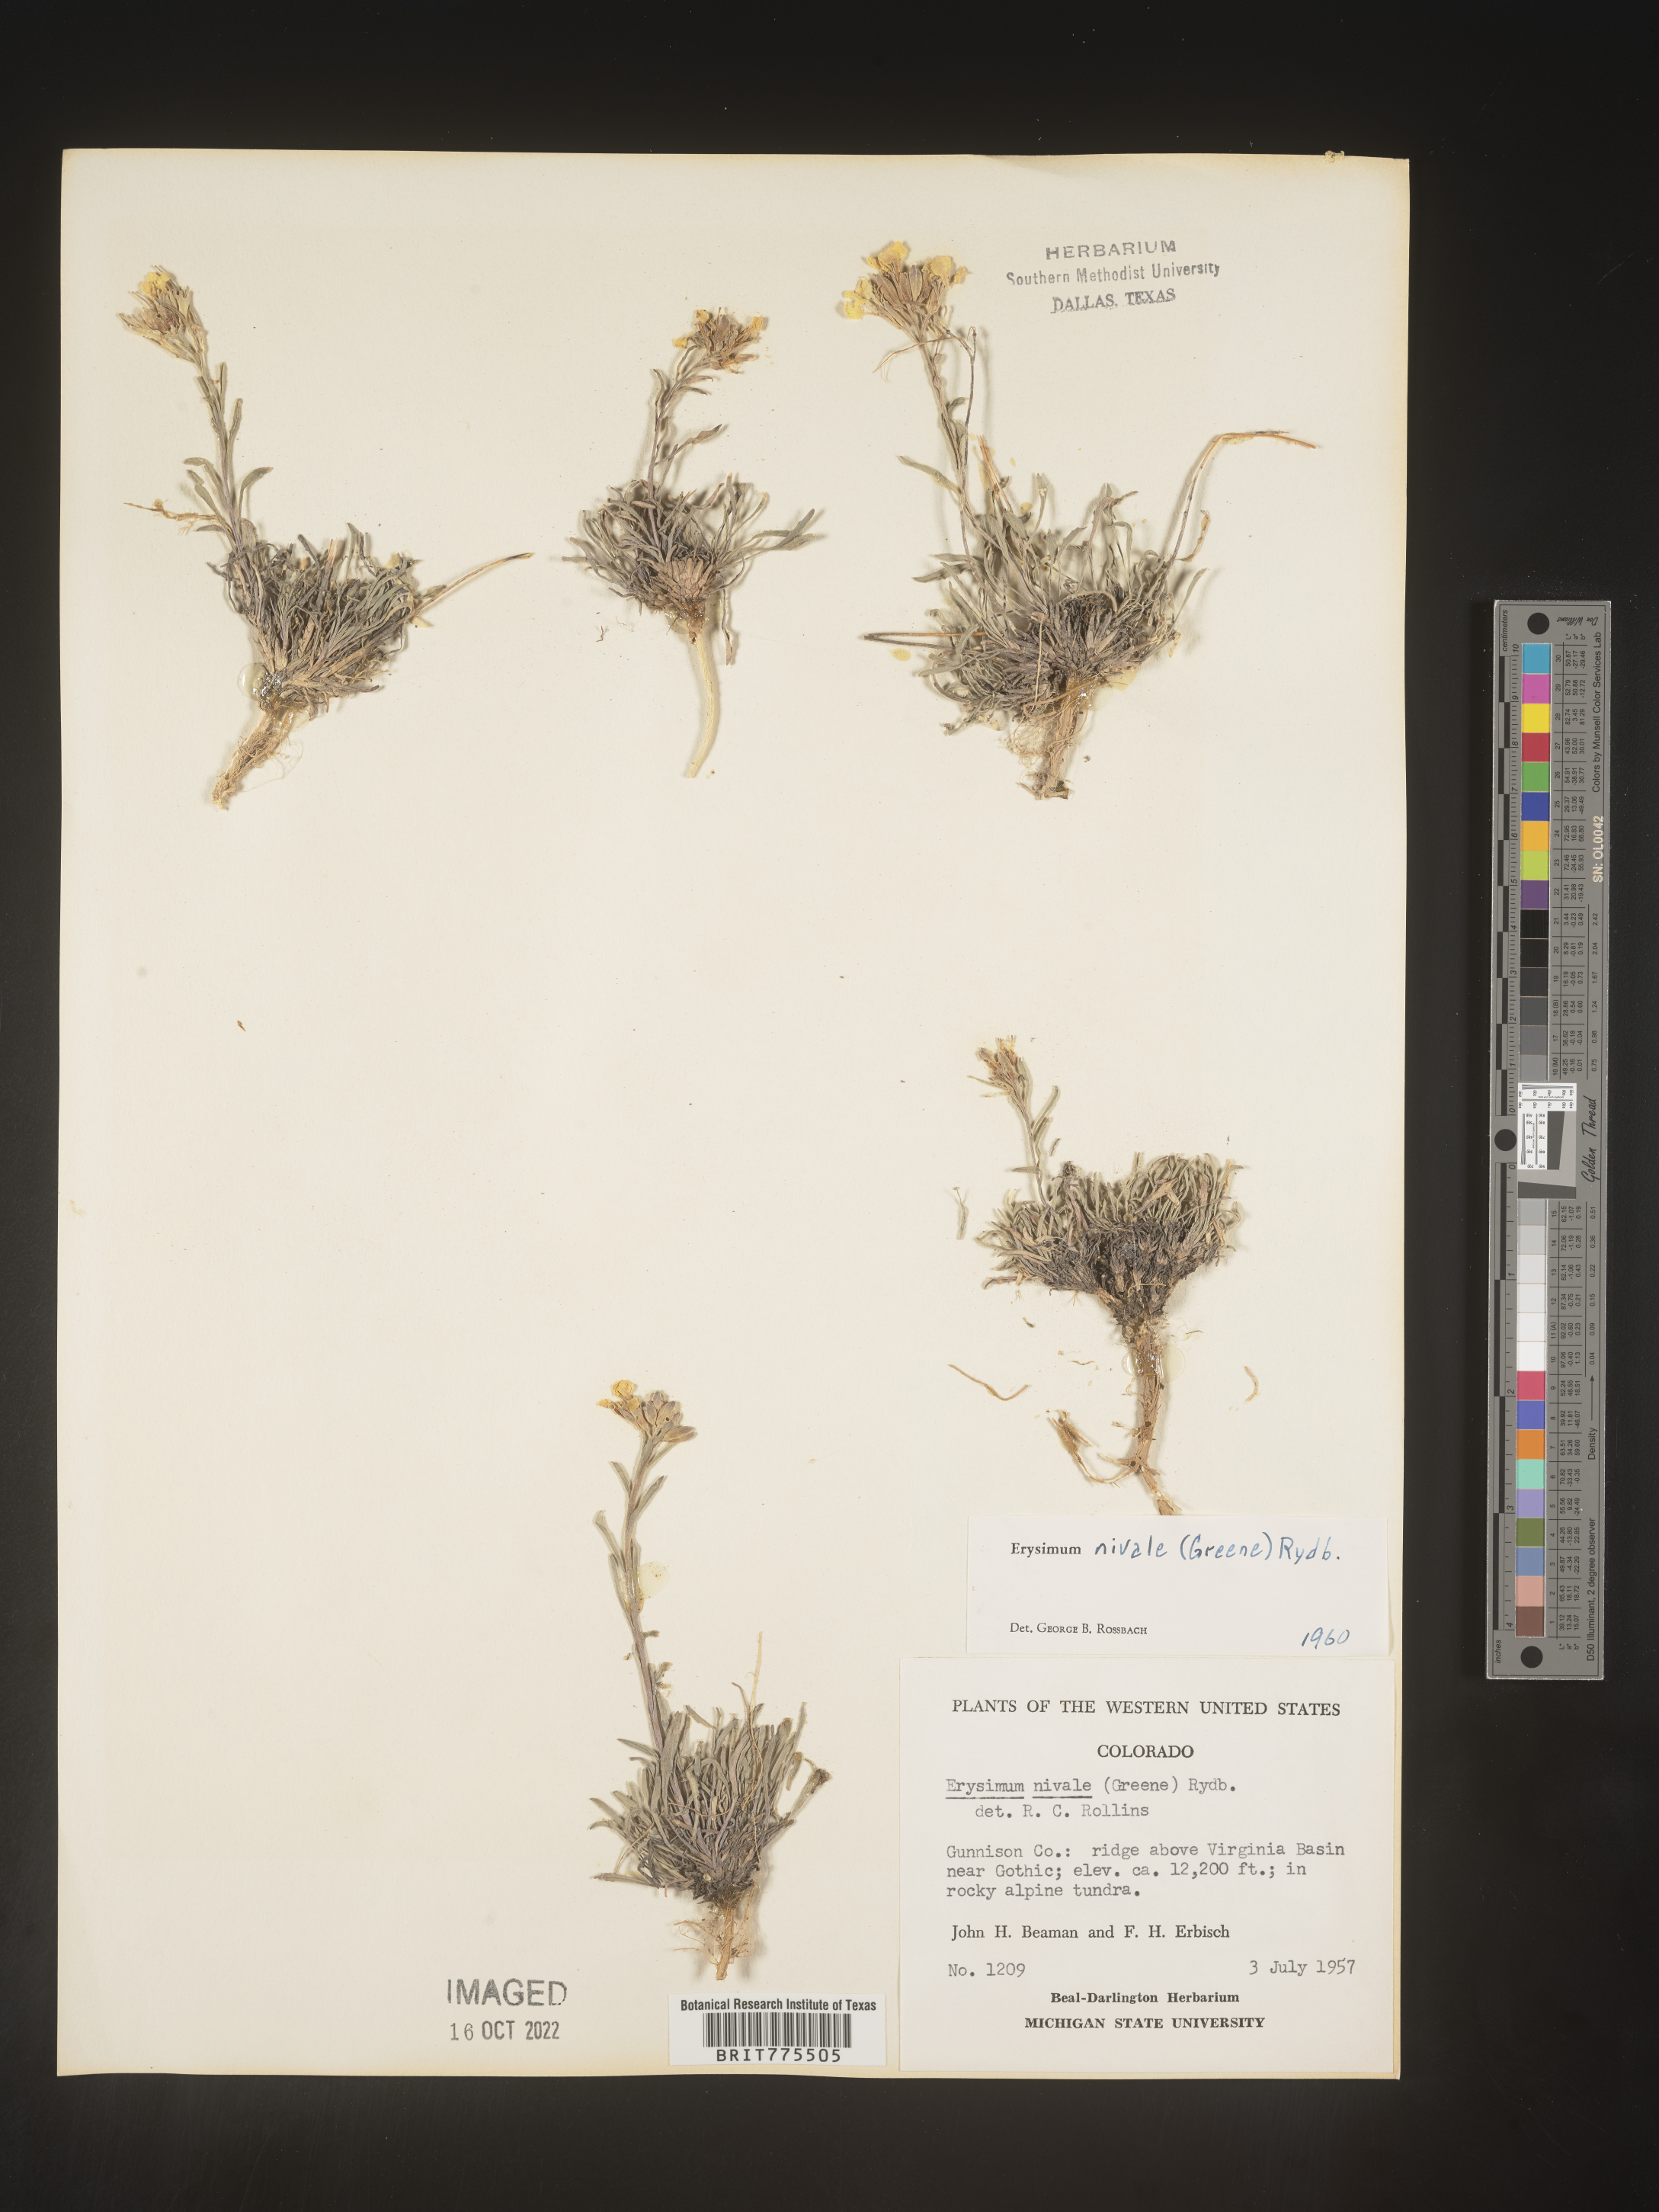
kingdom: Plantae
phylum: Tracheophyta
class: Magnoliopsida
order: Brassicales
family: Brassicaceae
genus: Erysimum
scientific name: Erysimum
